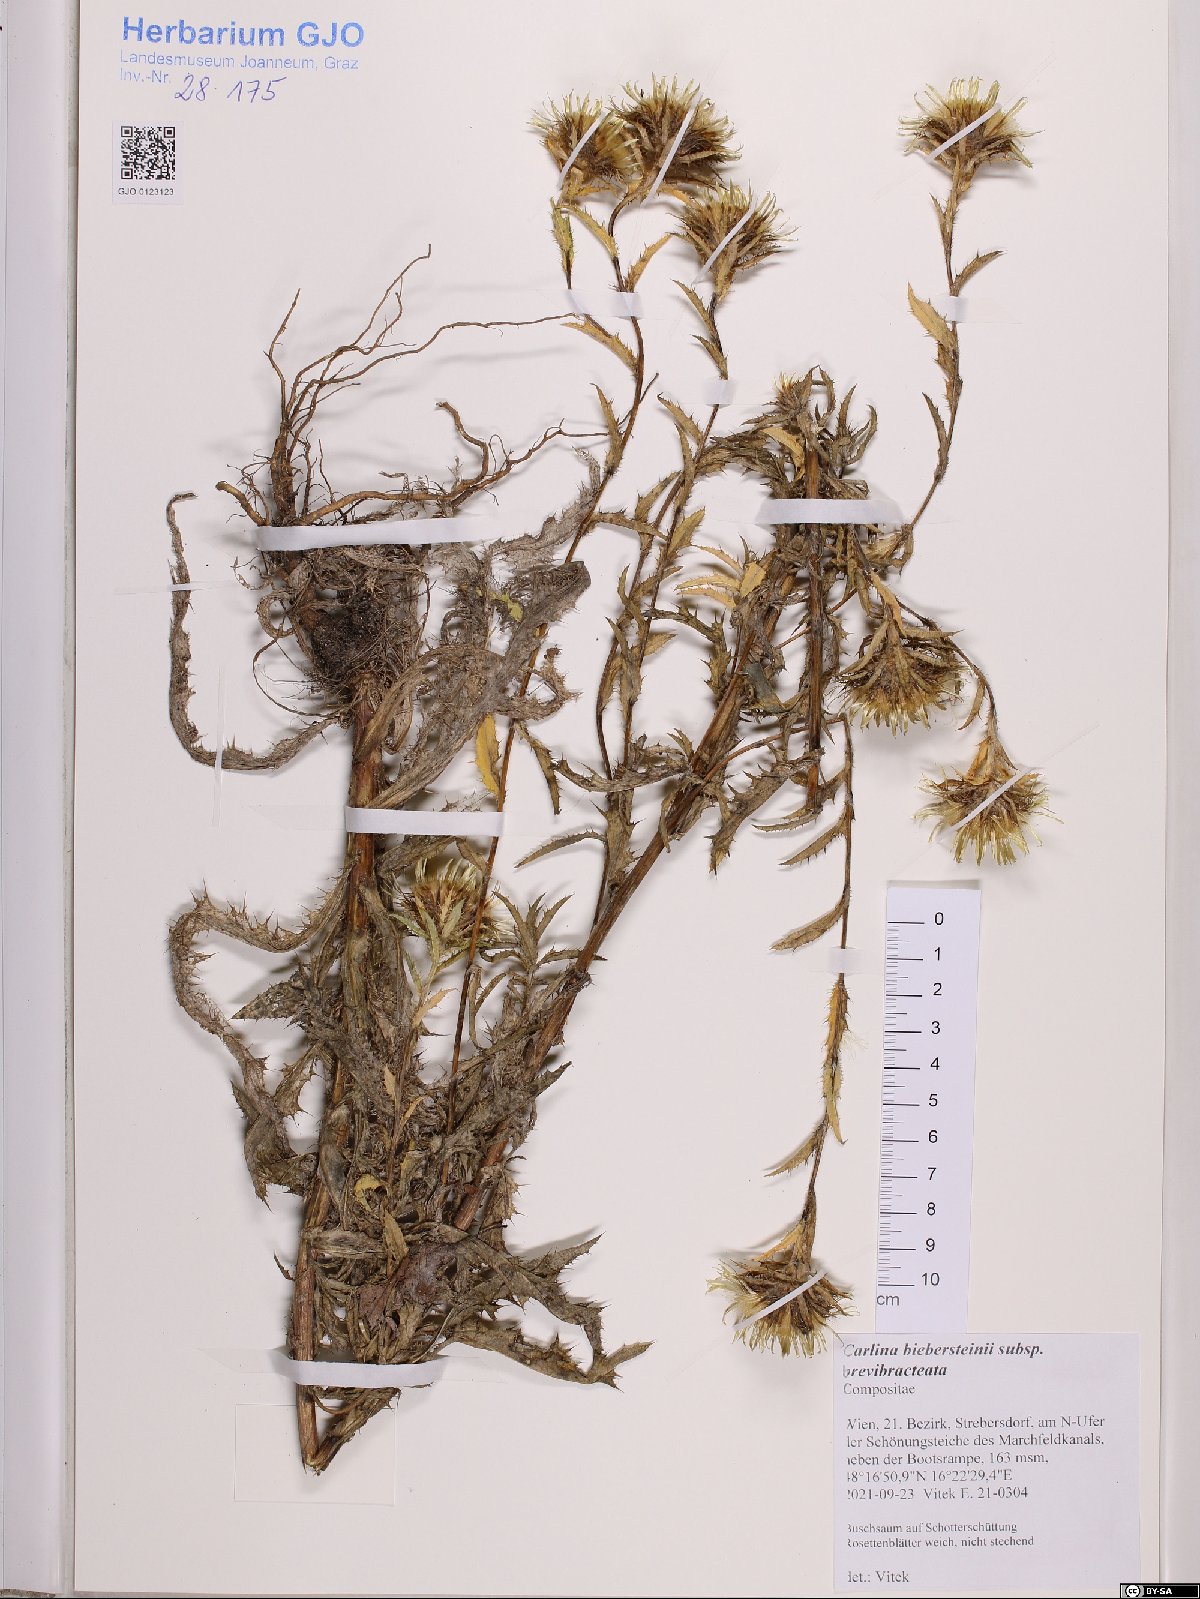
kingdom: Plantae
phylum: Tracheophyta
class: Magnoliopsida
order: Asterales
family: Asteraceae
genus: Carlina
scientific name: Carlina biebersteinii
